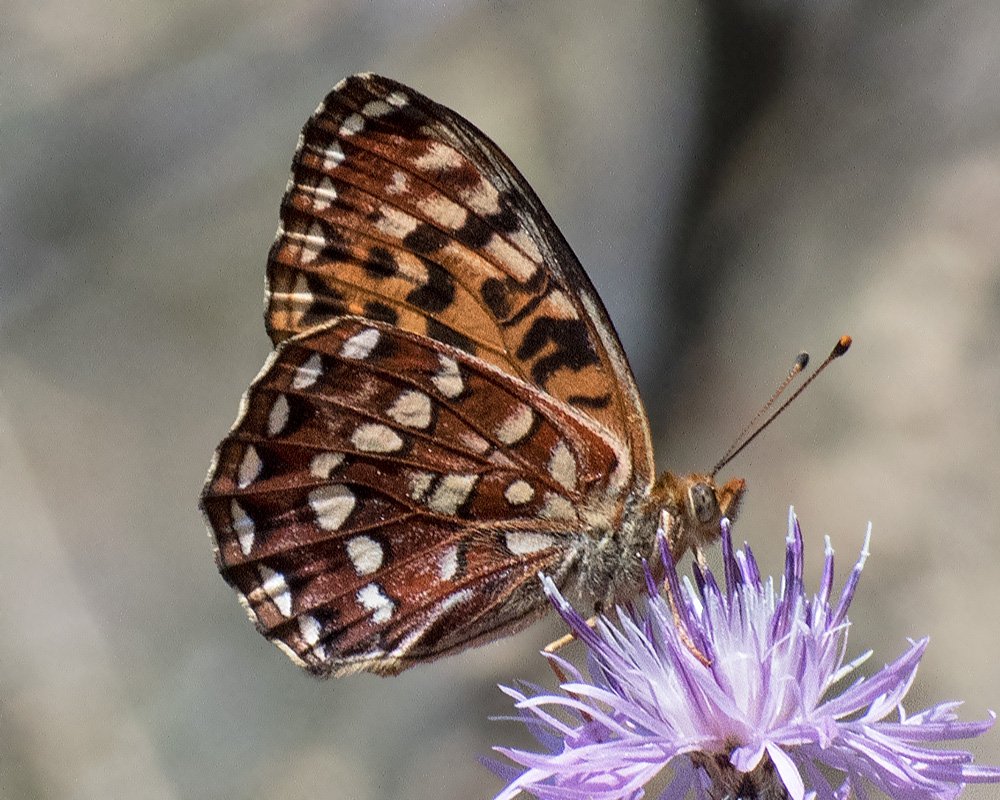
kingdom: Animalia
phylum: Arthropoda
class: Insecta
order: Lepidoptera
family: Nymphalidae
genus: Speyeria
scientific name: Speyeria hydaspe
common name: Hydaspe Fritillary
